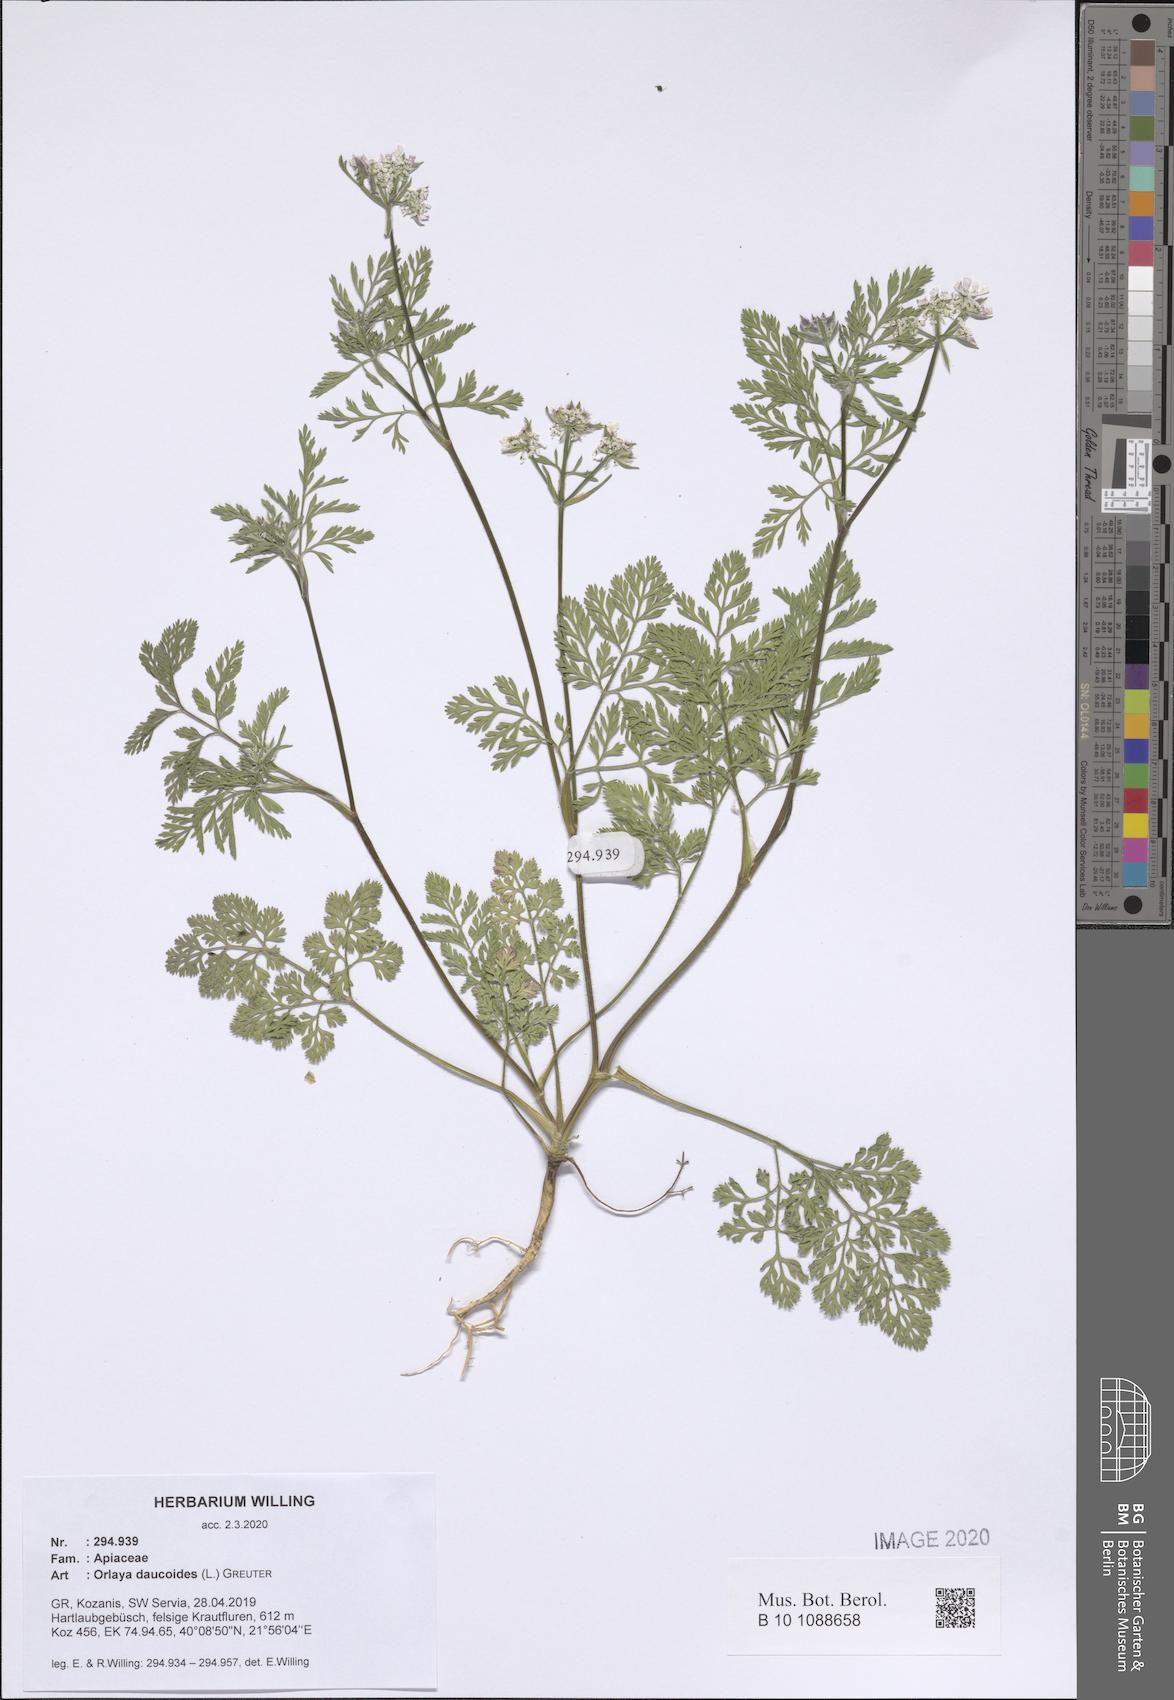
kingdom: Plantae
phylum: Tracheophyta
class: Magnoliopsida
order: Apiales
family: Apiaceae
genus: Orlaya
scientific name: Orlaya daucoides
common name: Flat-fruit orlaya
